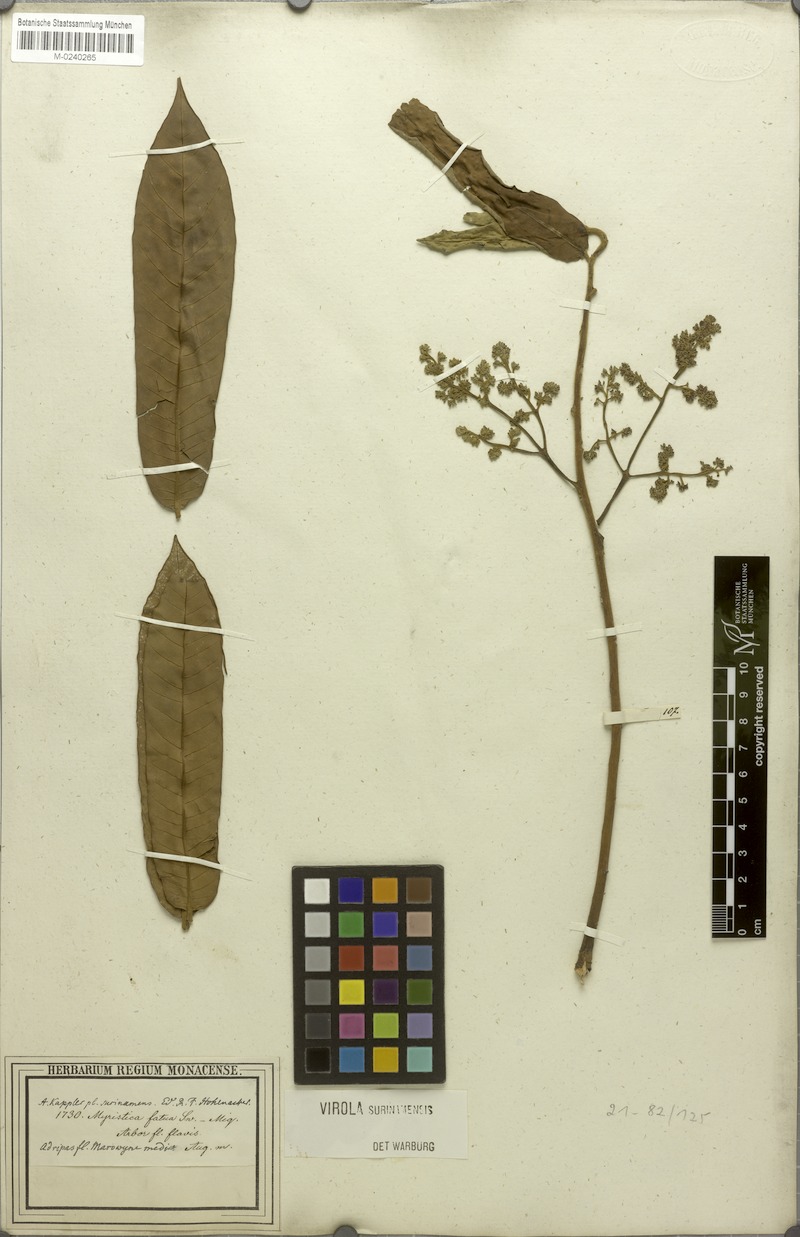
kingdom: Plantae
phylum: Tracheophyta
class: Magnoliopsida
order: Magnoliales
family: Myristicaceae
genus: Virola
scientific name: Virola surinamensis
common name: Baboonwood
